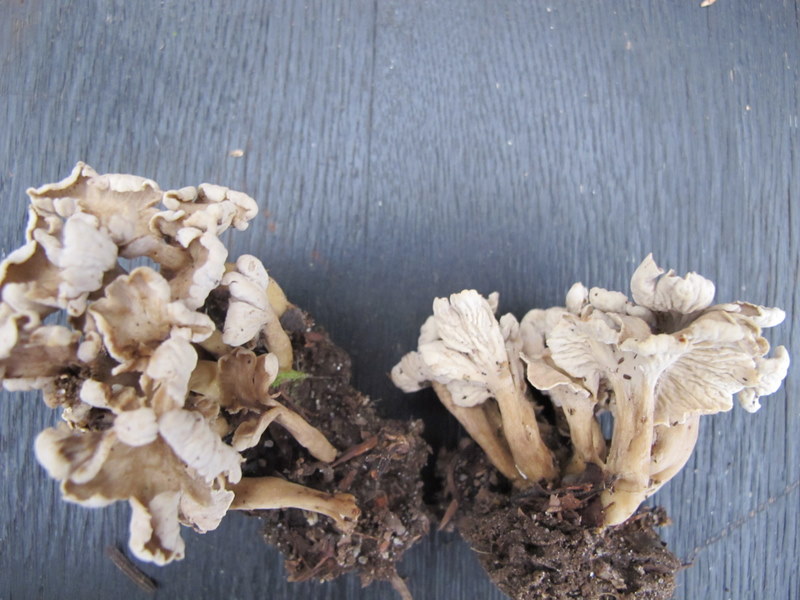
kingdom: Fungi
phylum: Basidiomycota
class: Agaricomycetes
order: Cantharellales
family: Hydnaceae
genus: Craterellus
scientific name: Craterellus undulatus
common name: liden kantarel
